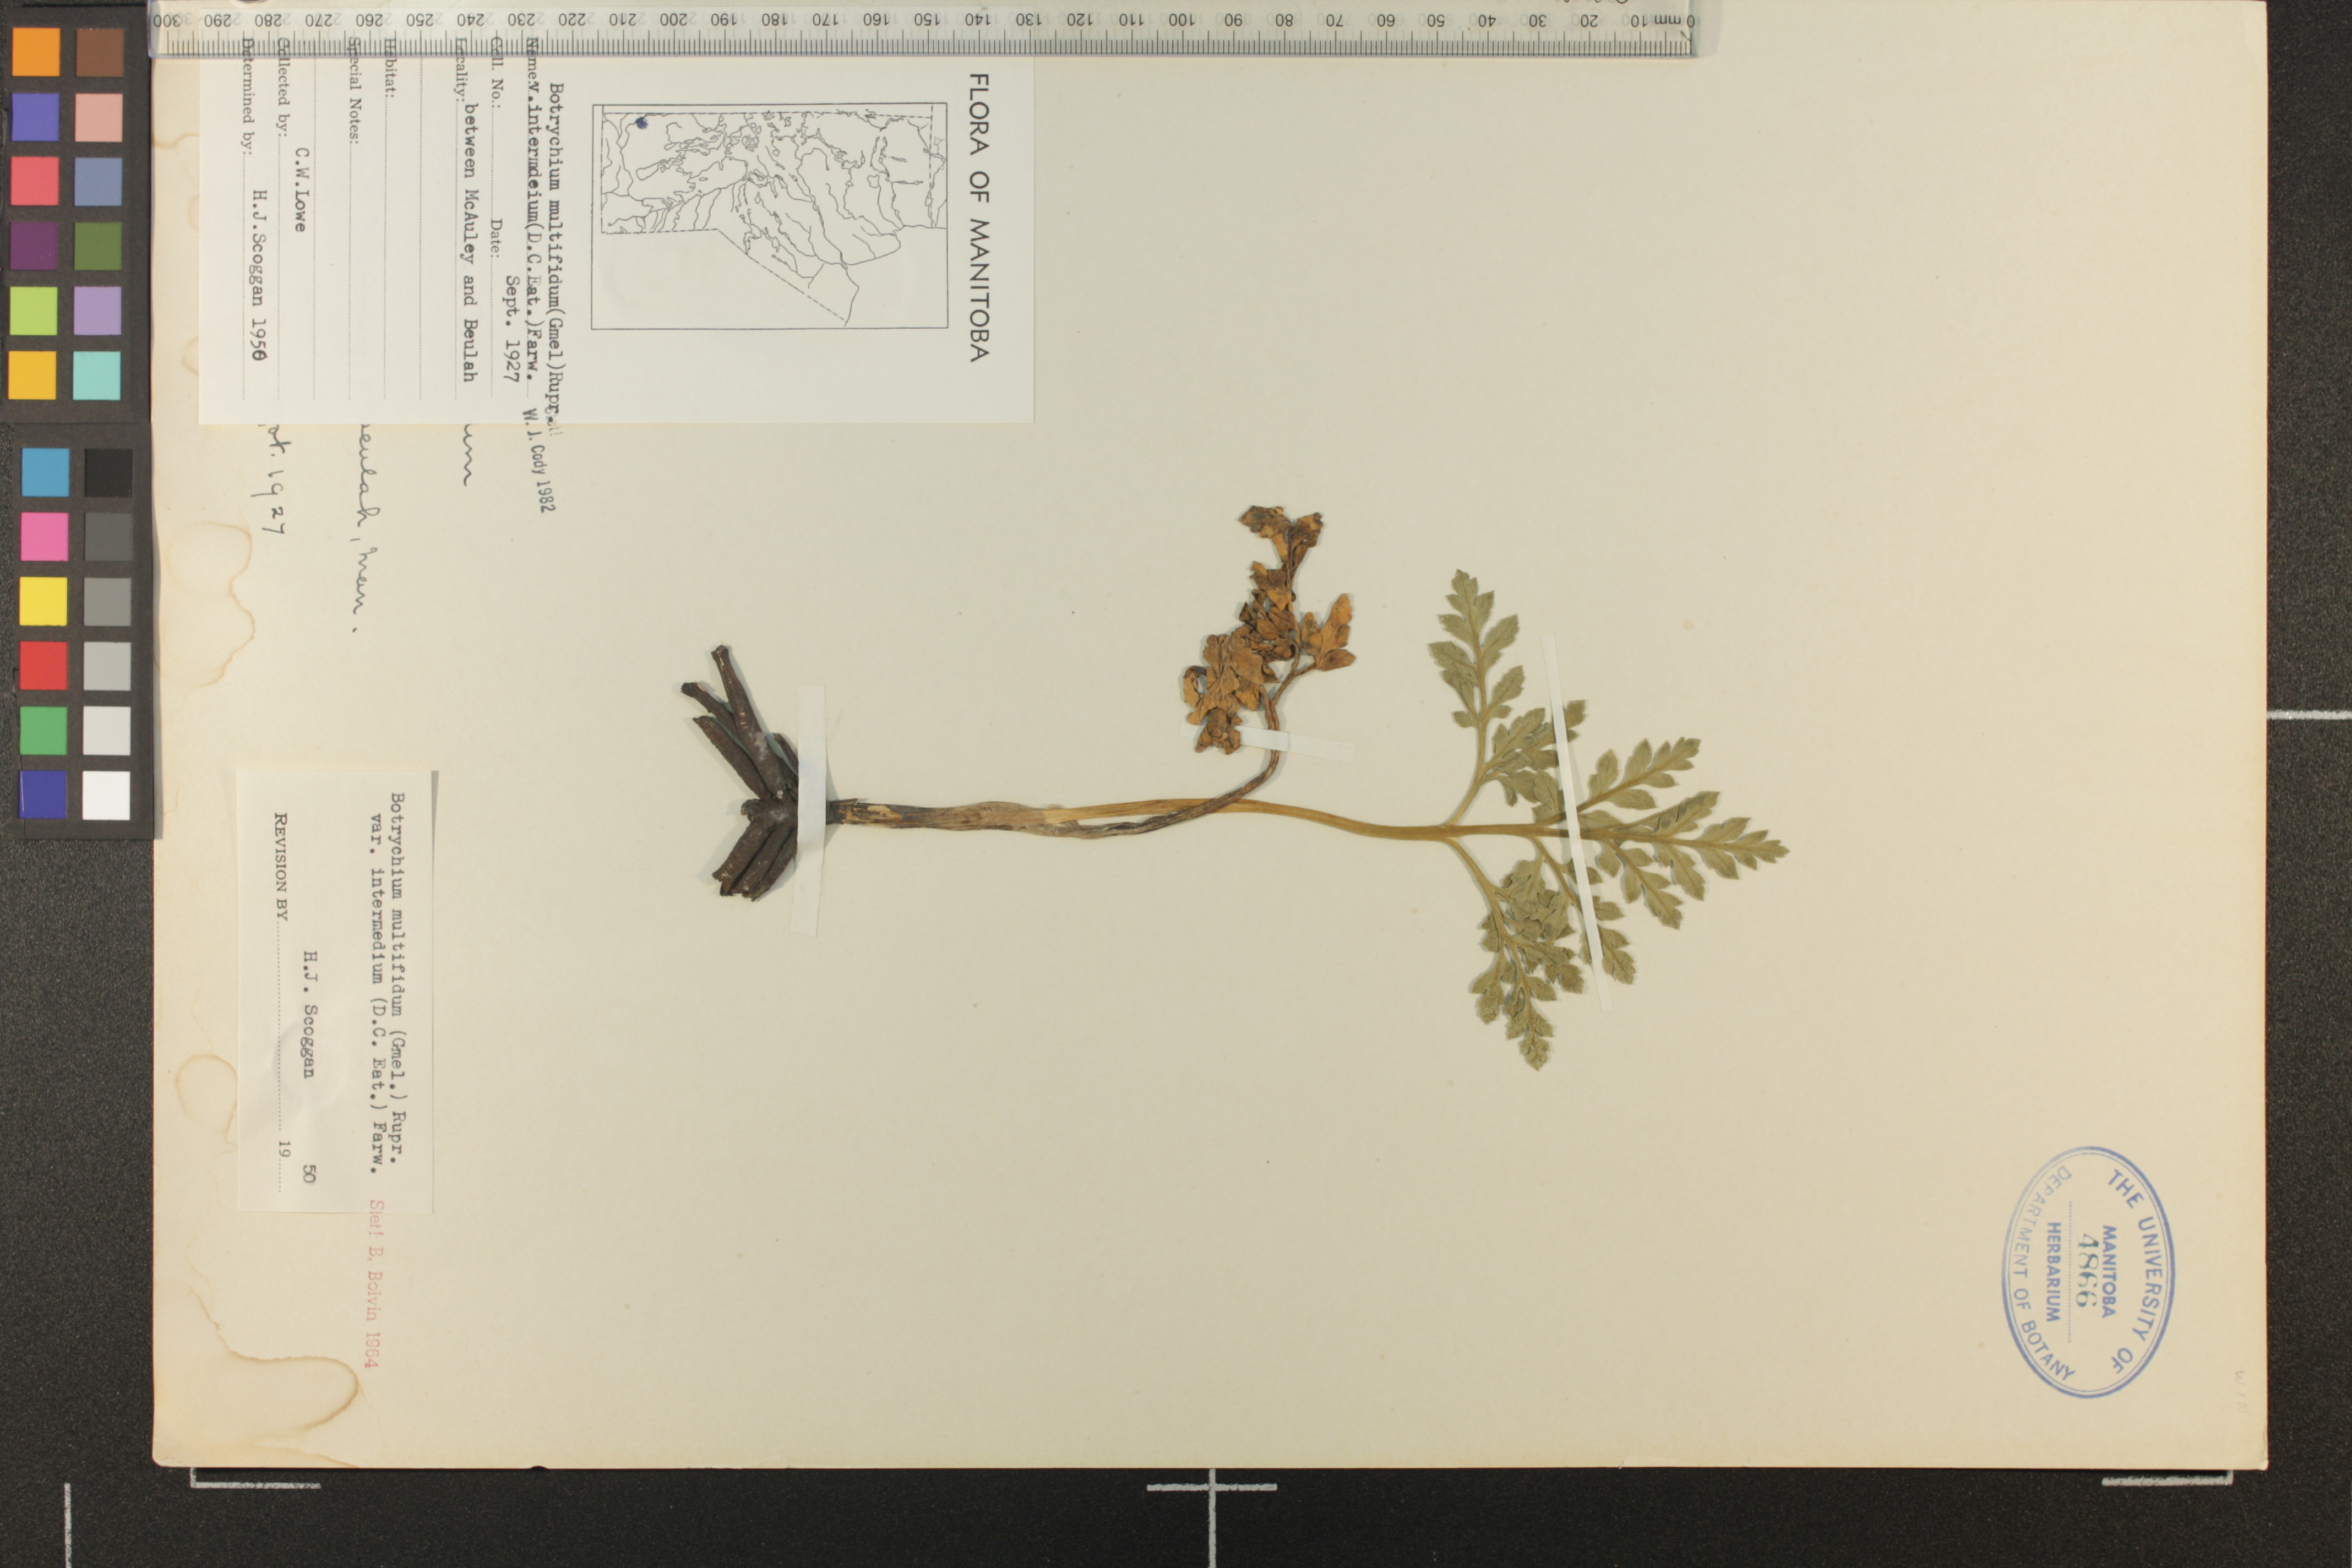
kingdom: Plantae
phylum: Tracheophyta
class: Polypodiopsida
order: Ophioglossales
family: Ophioglossaceae
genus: Sceptridium
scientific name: Sceptridium multifidum
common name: Leathery grape fern
